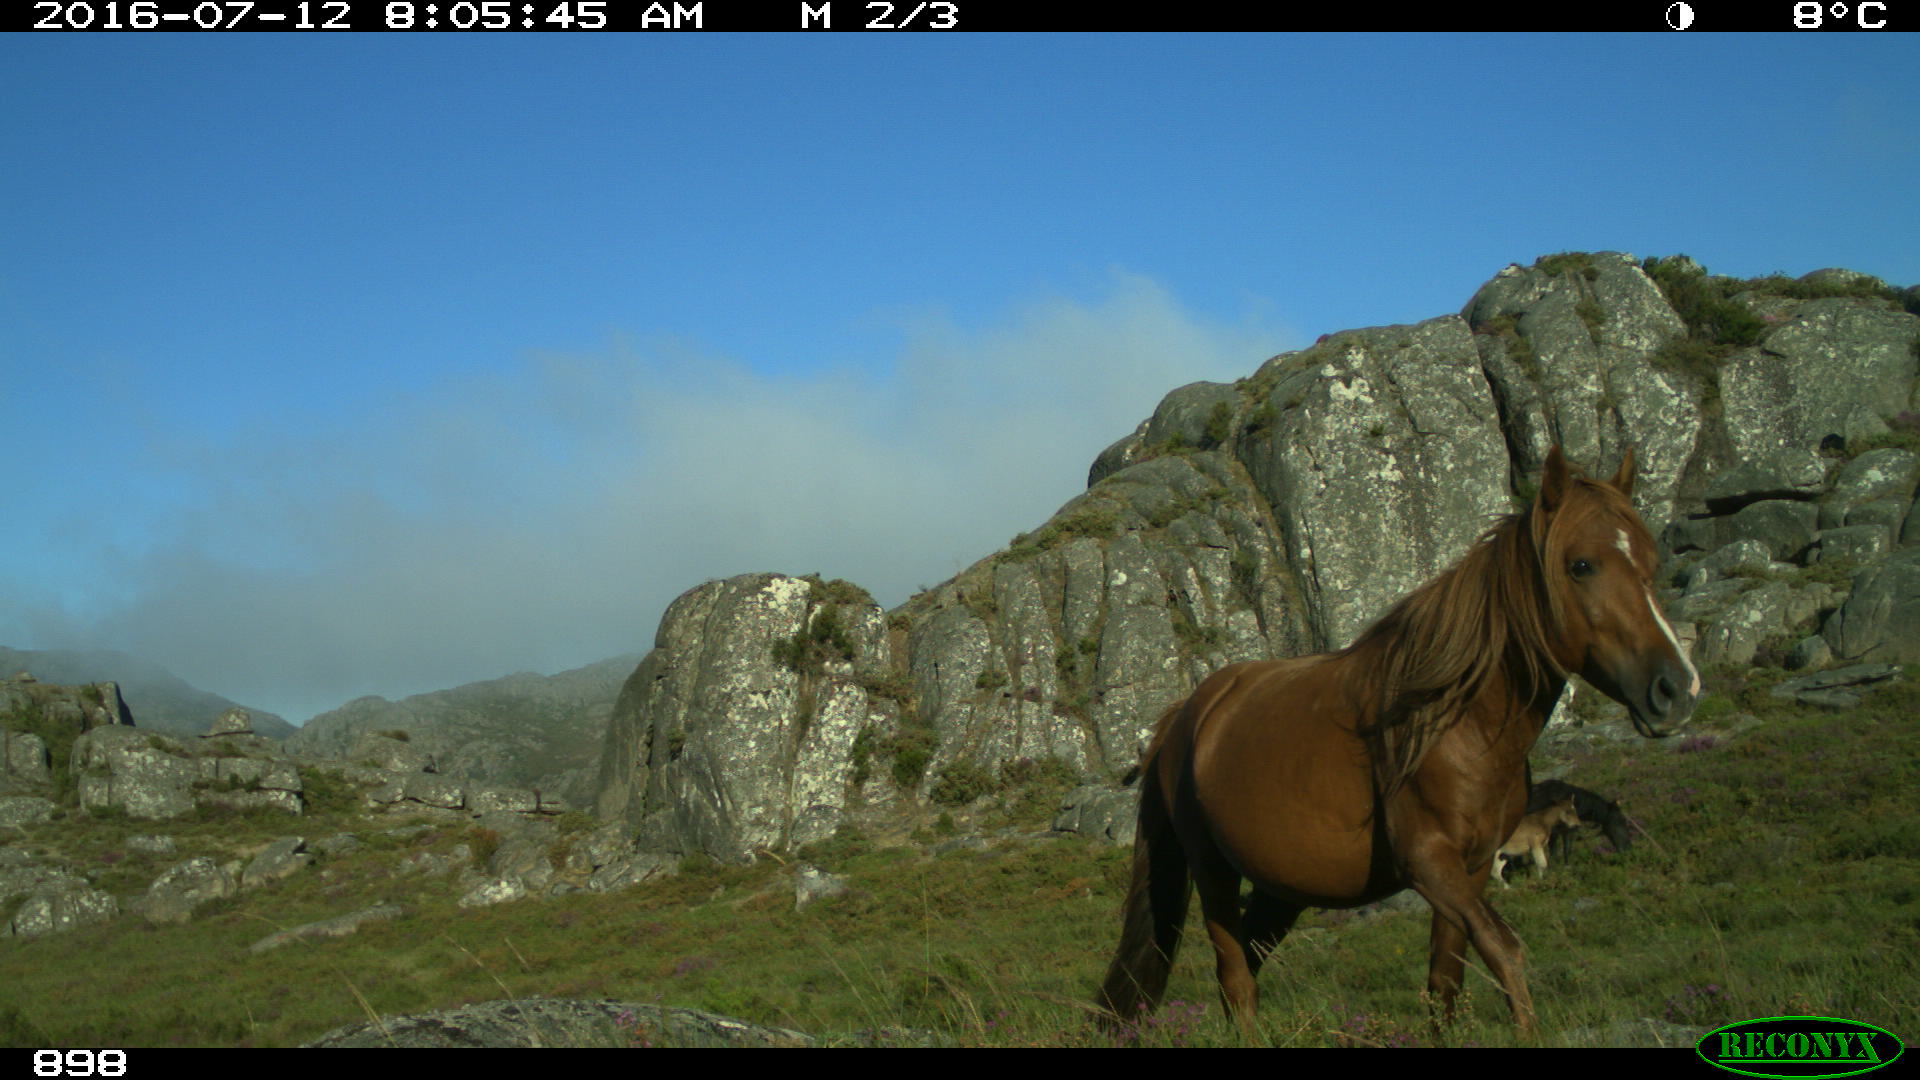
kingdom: Animalia
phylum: Chordata
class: Mammalia
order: Perissodactyla
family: Equidae
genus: Equus
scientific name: Equus caballus
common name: Horse
